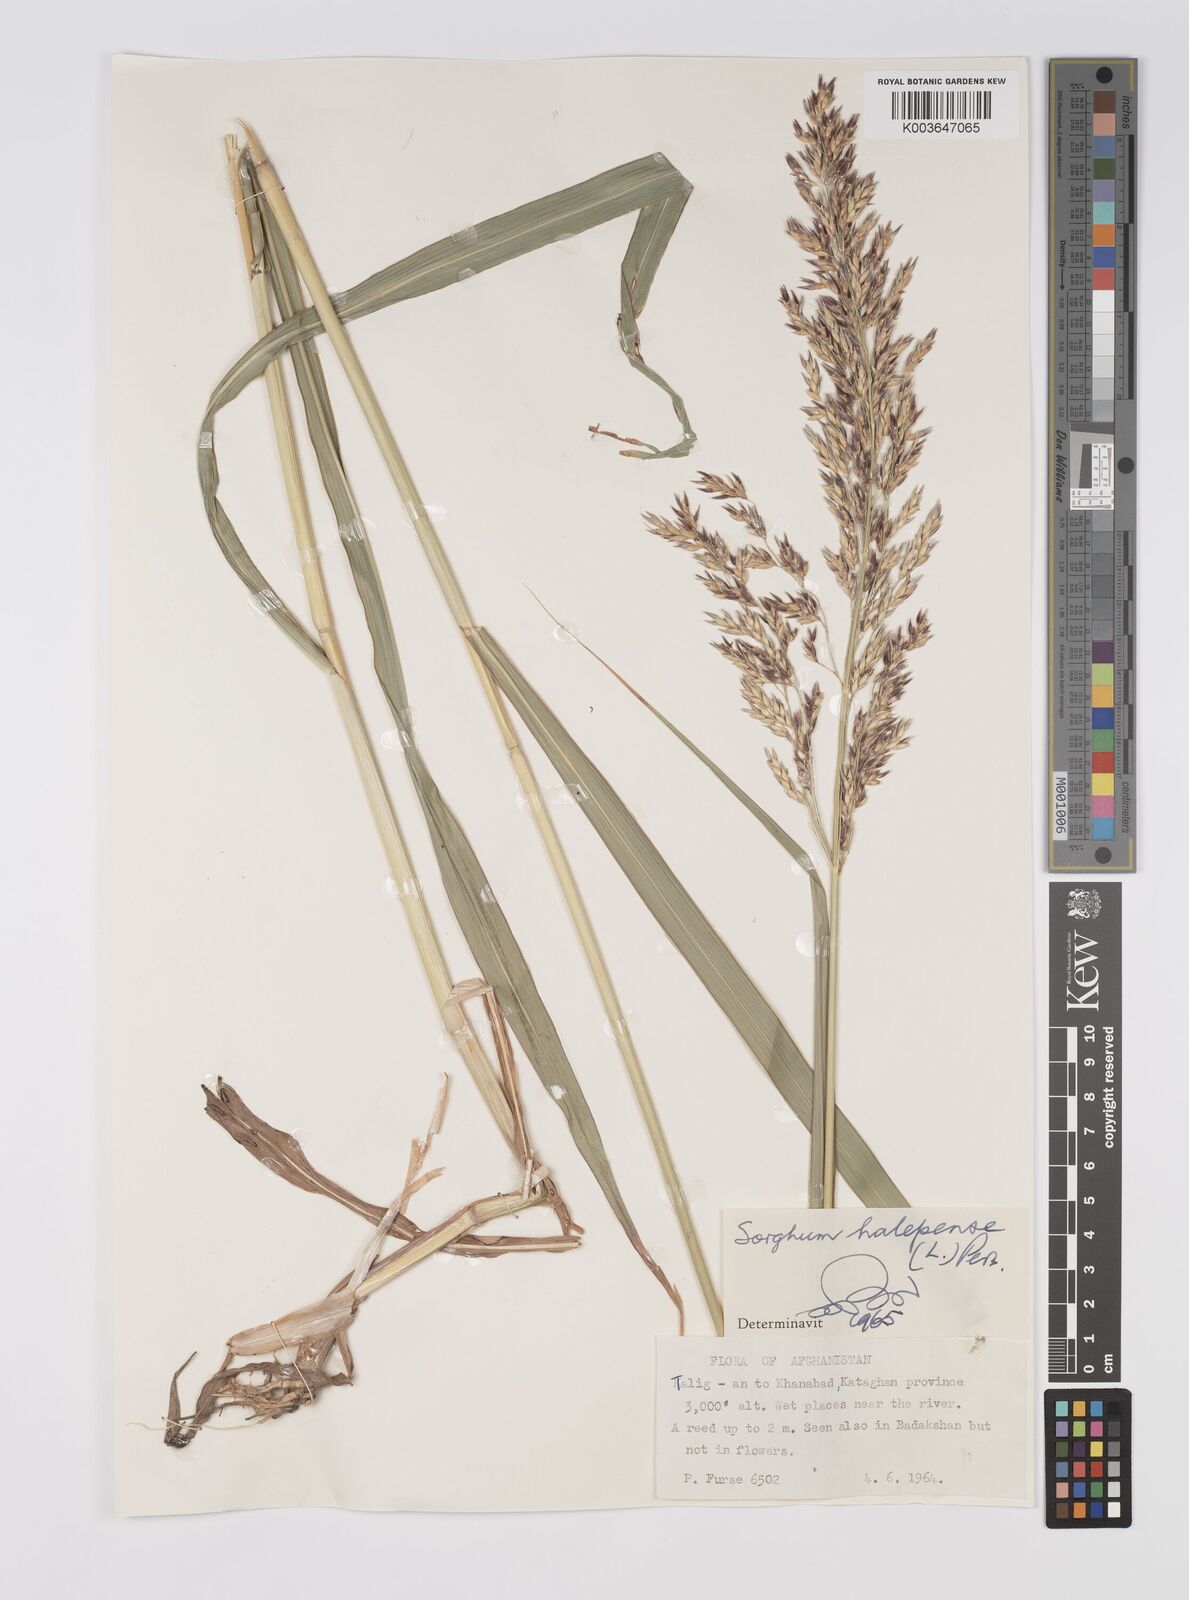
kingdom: Plantae
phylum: Tracheophyta
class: Liliopsida
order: Poales
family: Poaceae
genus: Sorghum
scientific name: Sorghum halepense
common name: Johnson-grass
